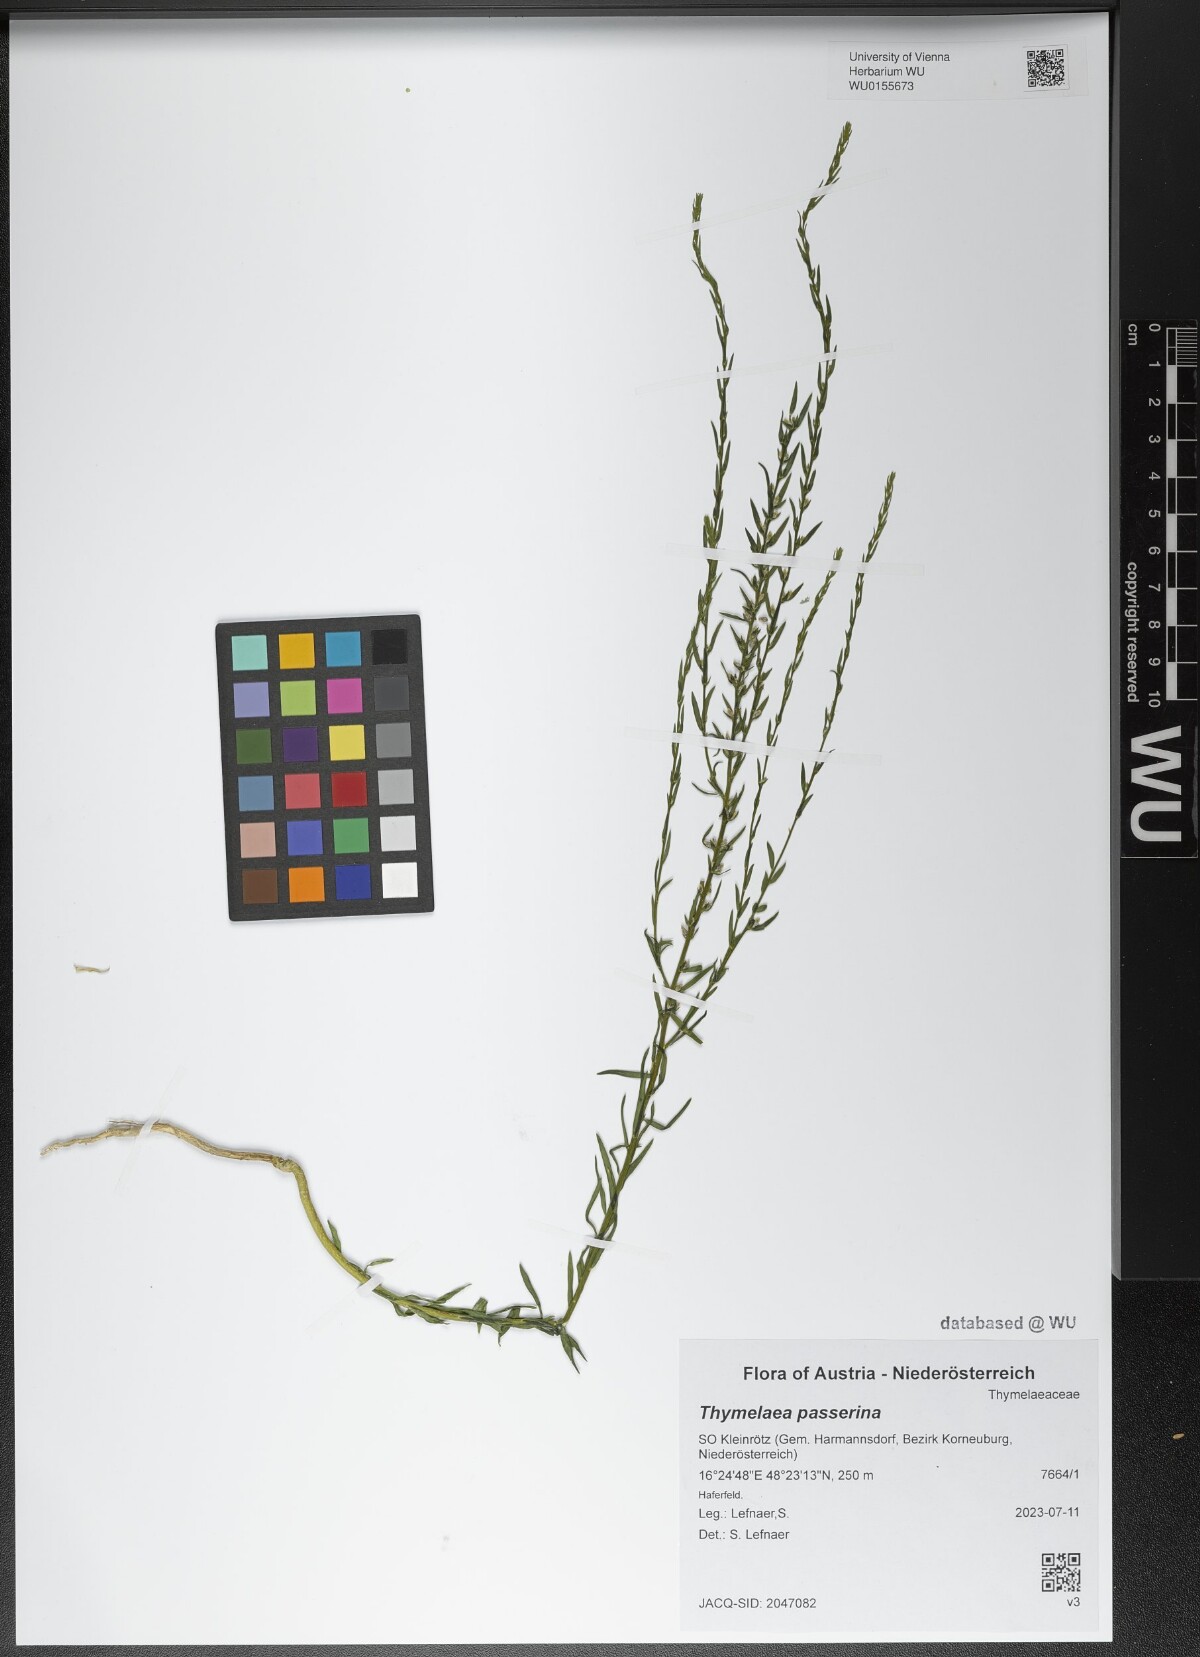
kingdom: Plantae
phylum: Tracheophyta
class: Magnoliopsida
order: Malvales
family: Thymelaeaceae
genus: Thymelaea
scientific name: Thymelaea passerina
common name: Annual thymelaea
